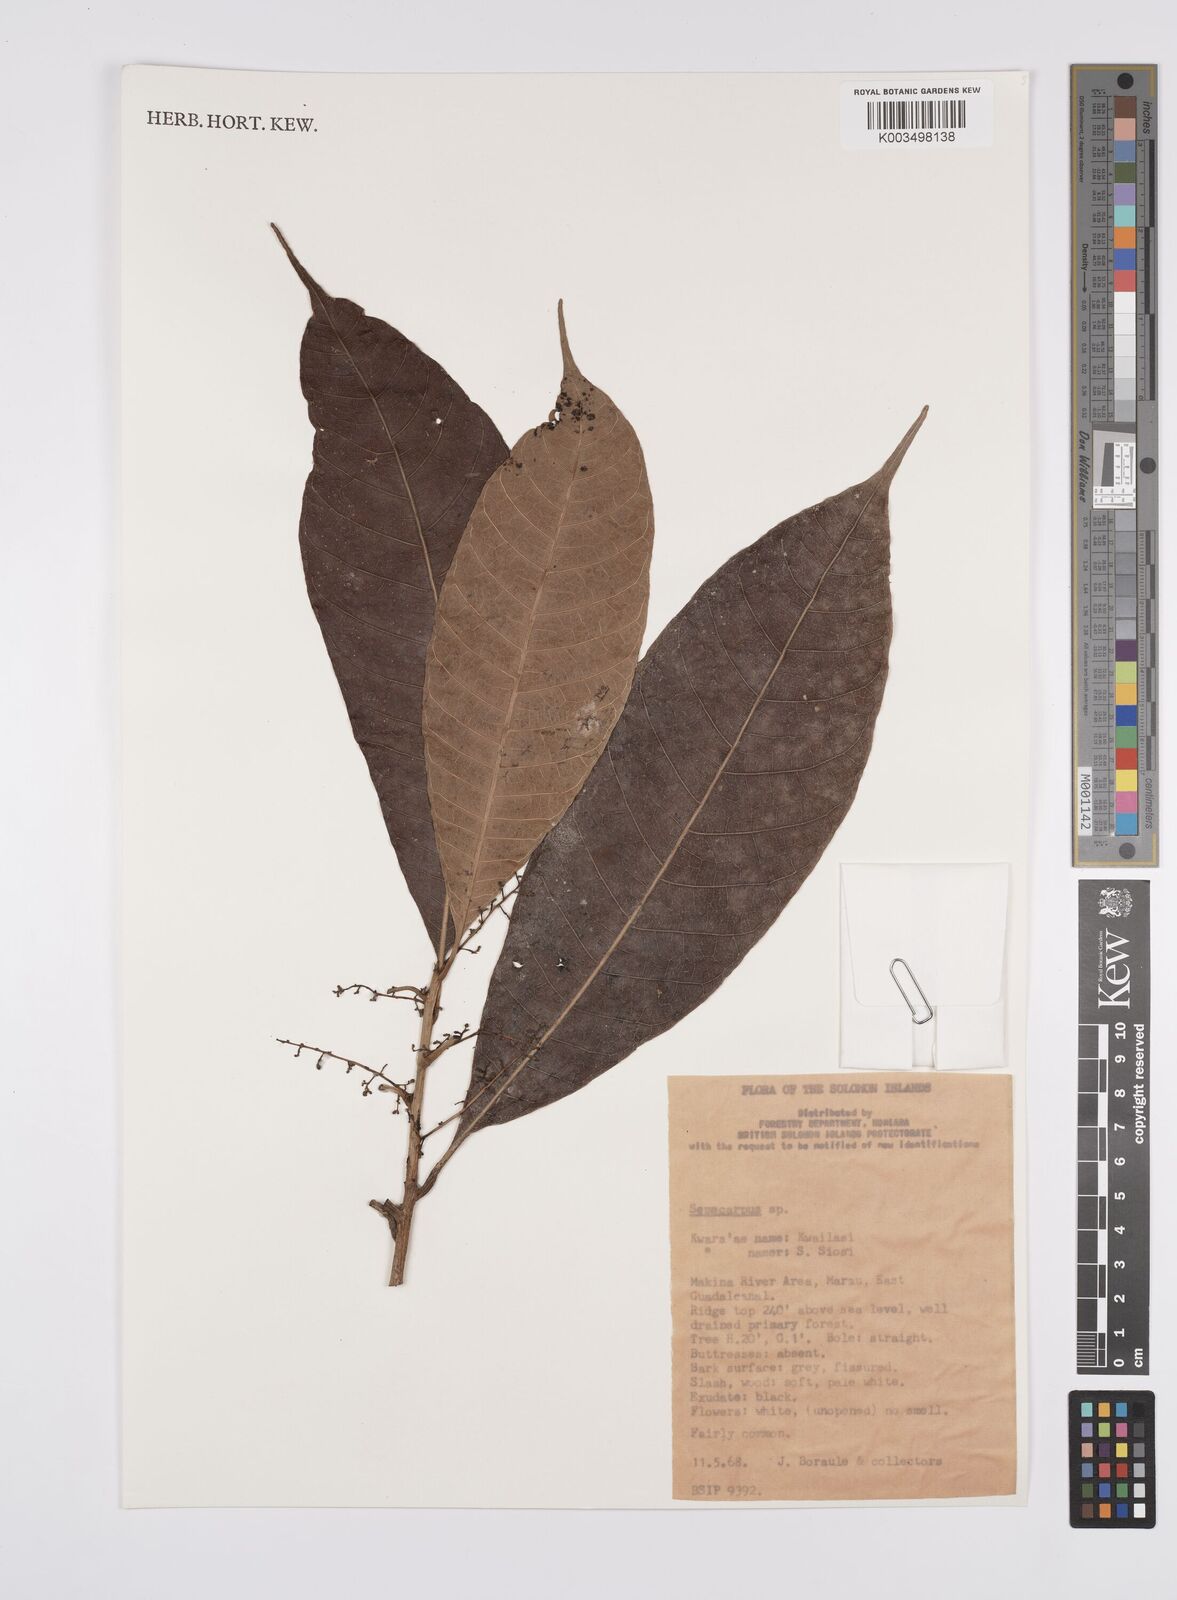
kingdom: Plantae
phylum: Tracheophyta
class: Magnoliopsida
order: Sapindales
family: Anacardiaceae
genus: Semecarpus
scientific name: Semecarpus
